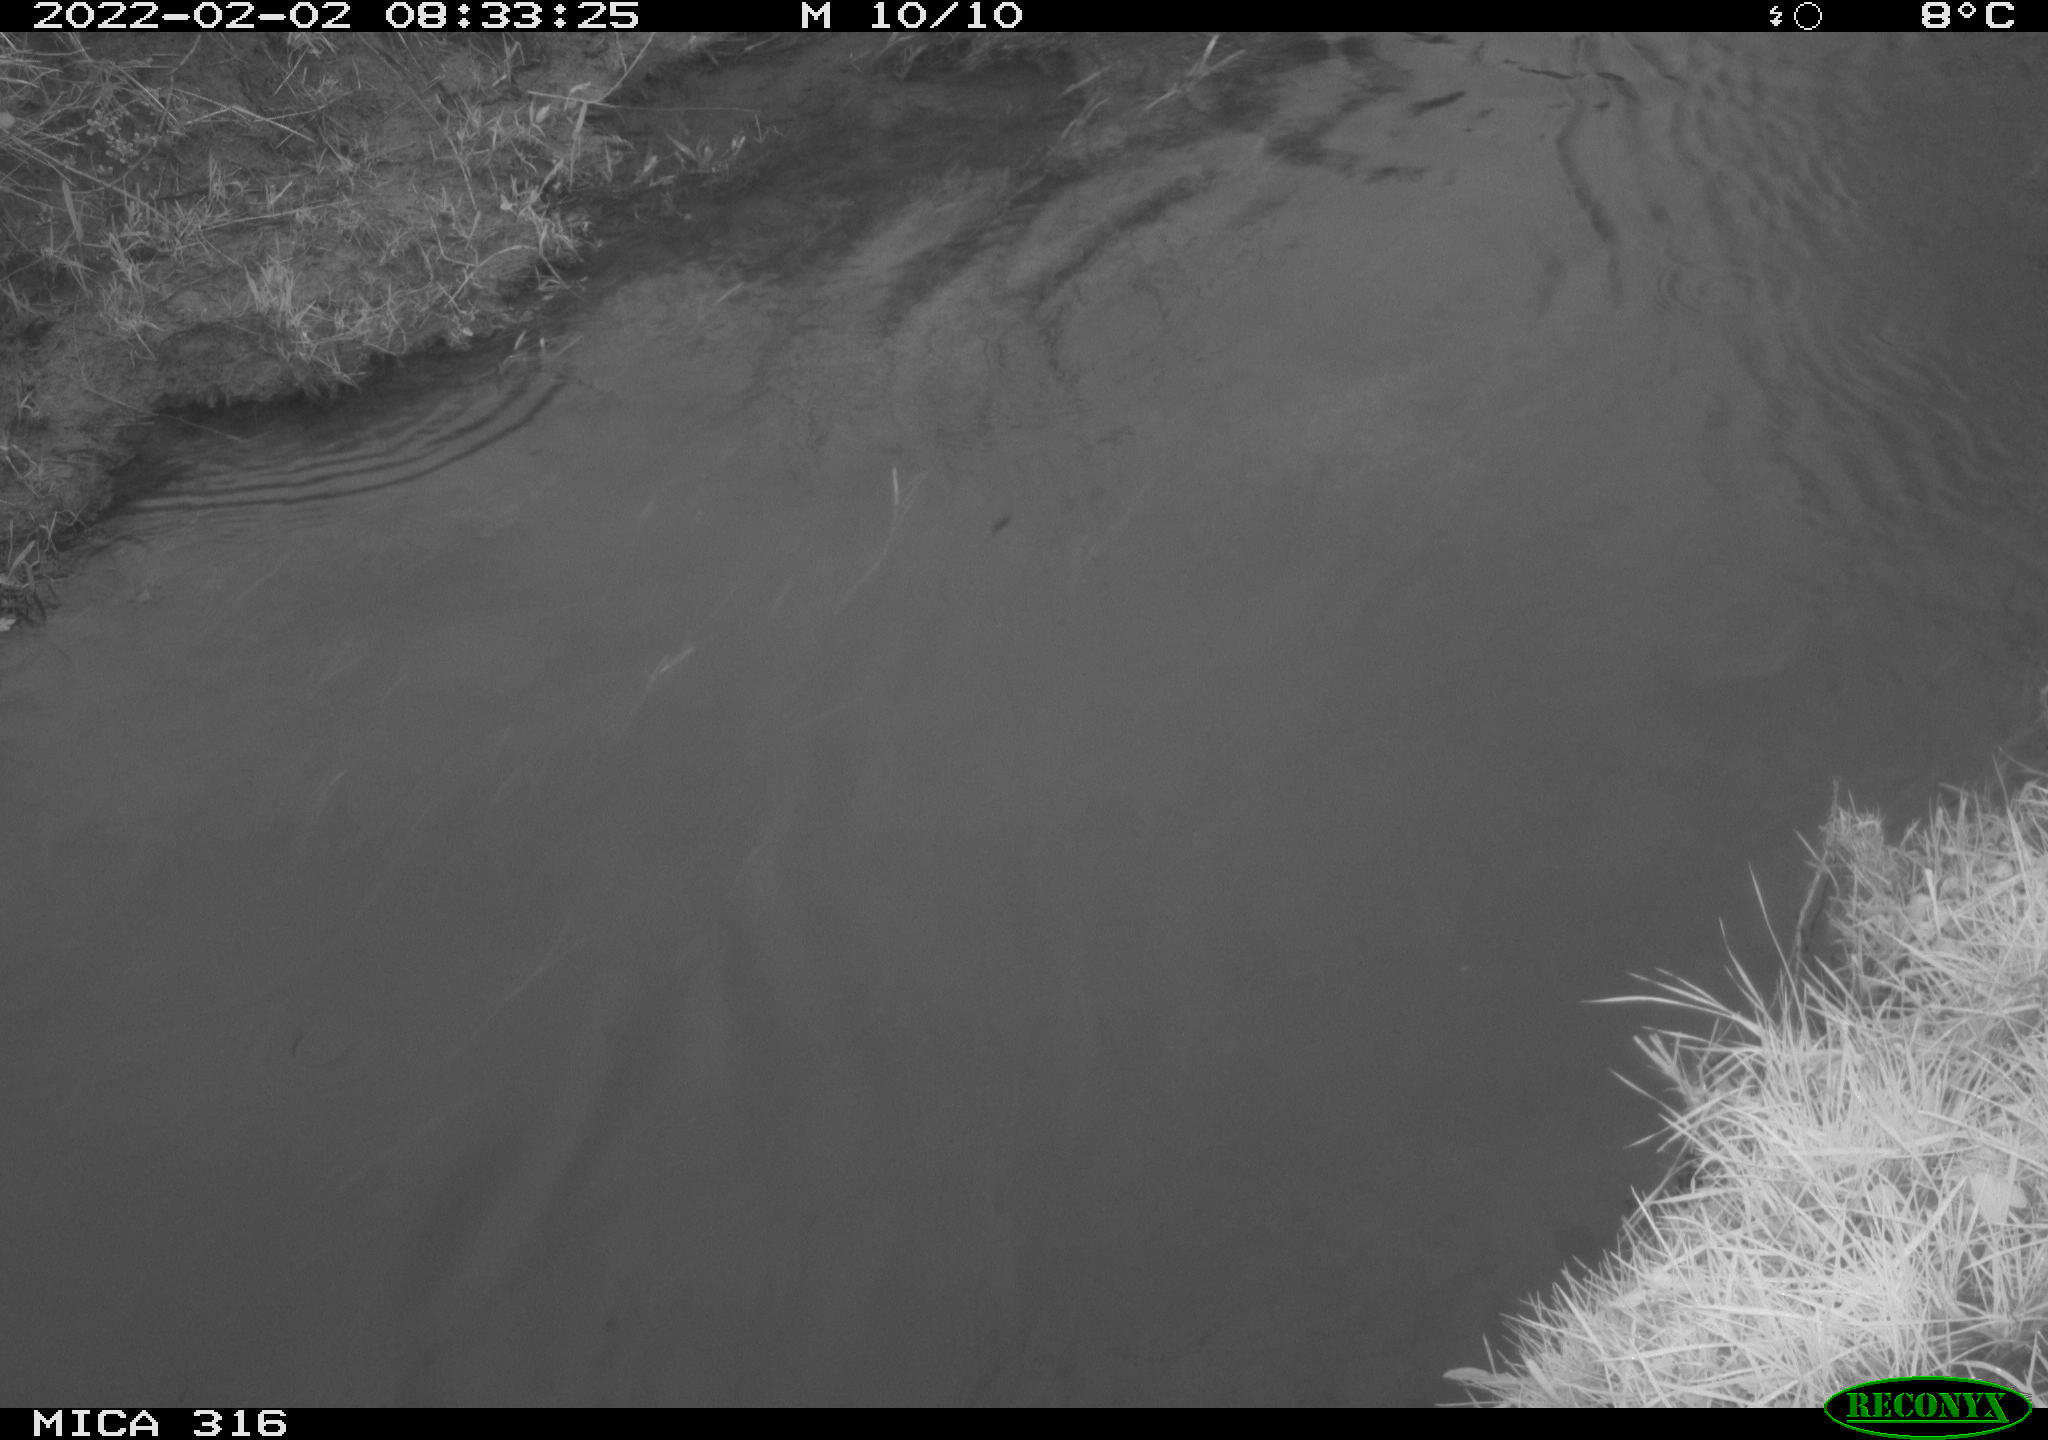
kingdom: Animalia
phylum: Chordata
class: Aves
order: Gruiformes
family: Rallidae
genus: Gallinula
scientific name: Gallinula chloropus
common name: Common moorhen
